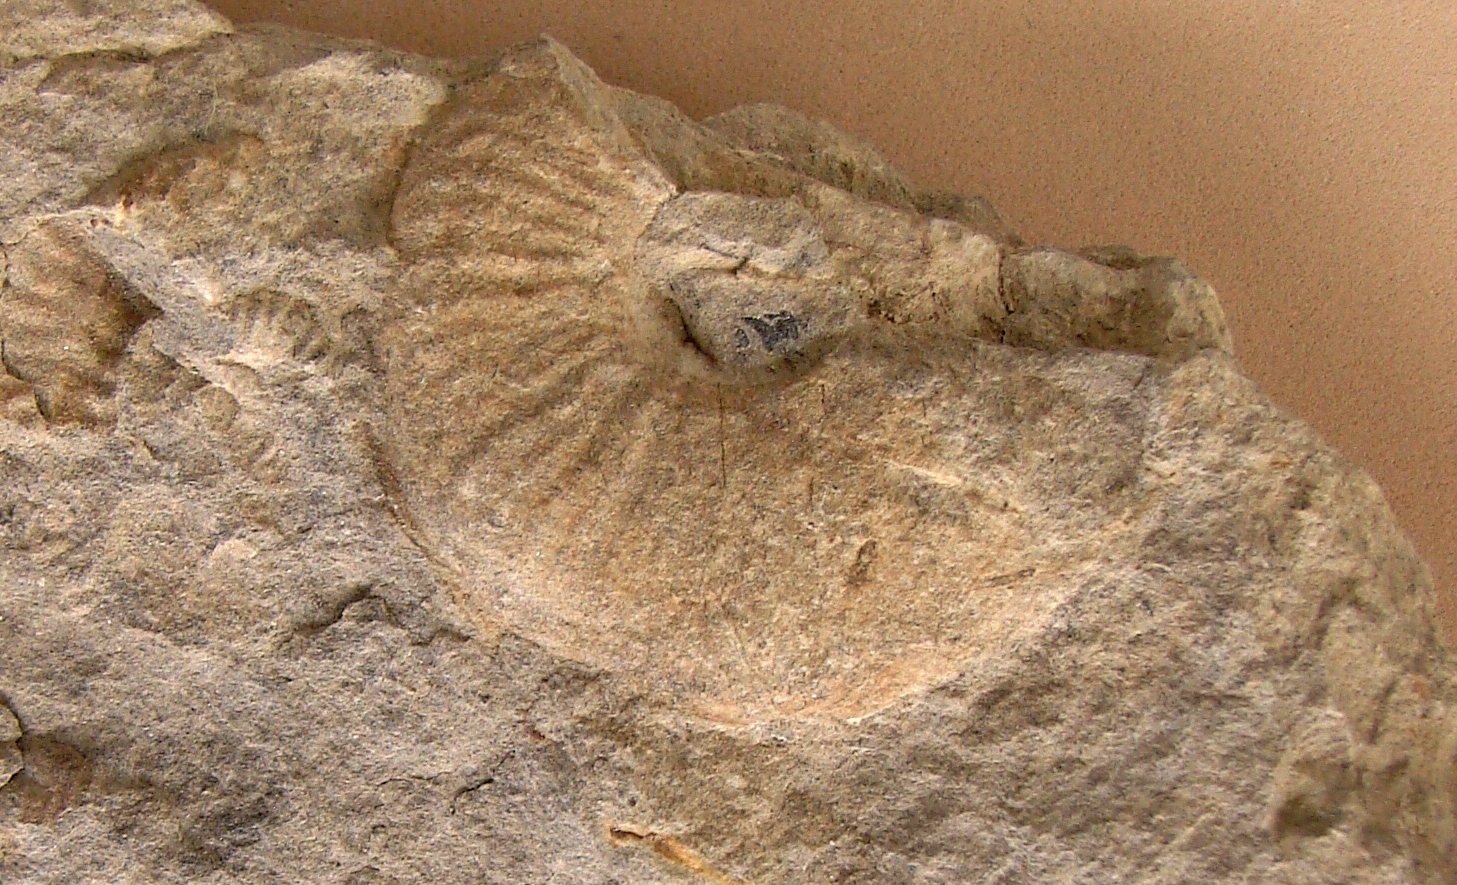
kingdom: Animalia
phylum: Mollusca
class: Cephalopoda
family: Sonniniidae
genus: Sonninia
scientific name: Sonninia propinquans
